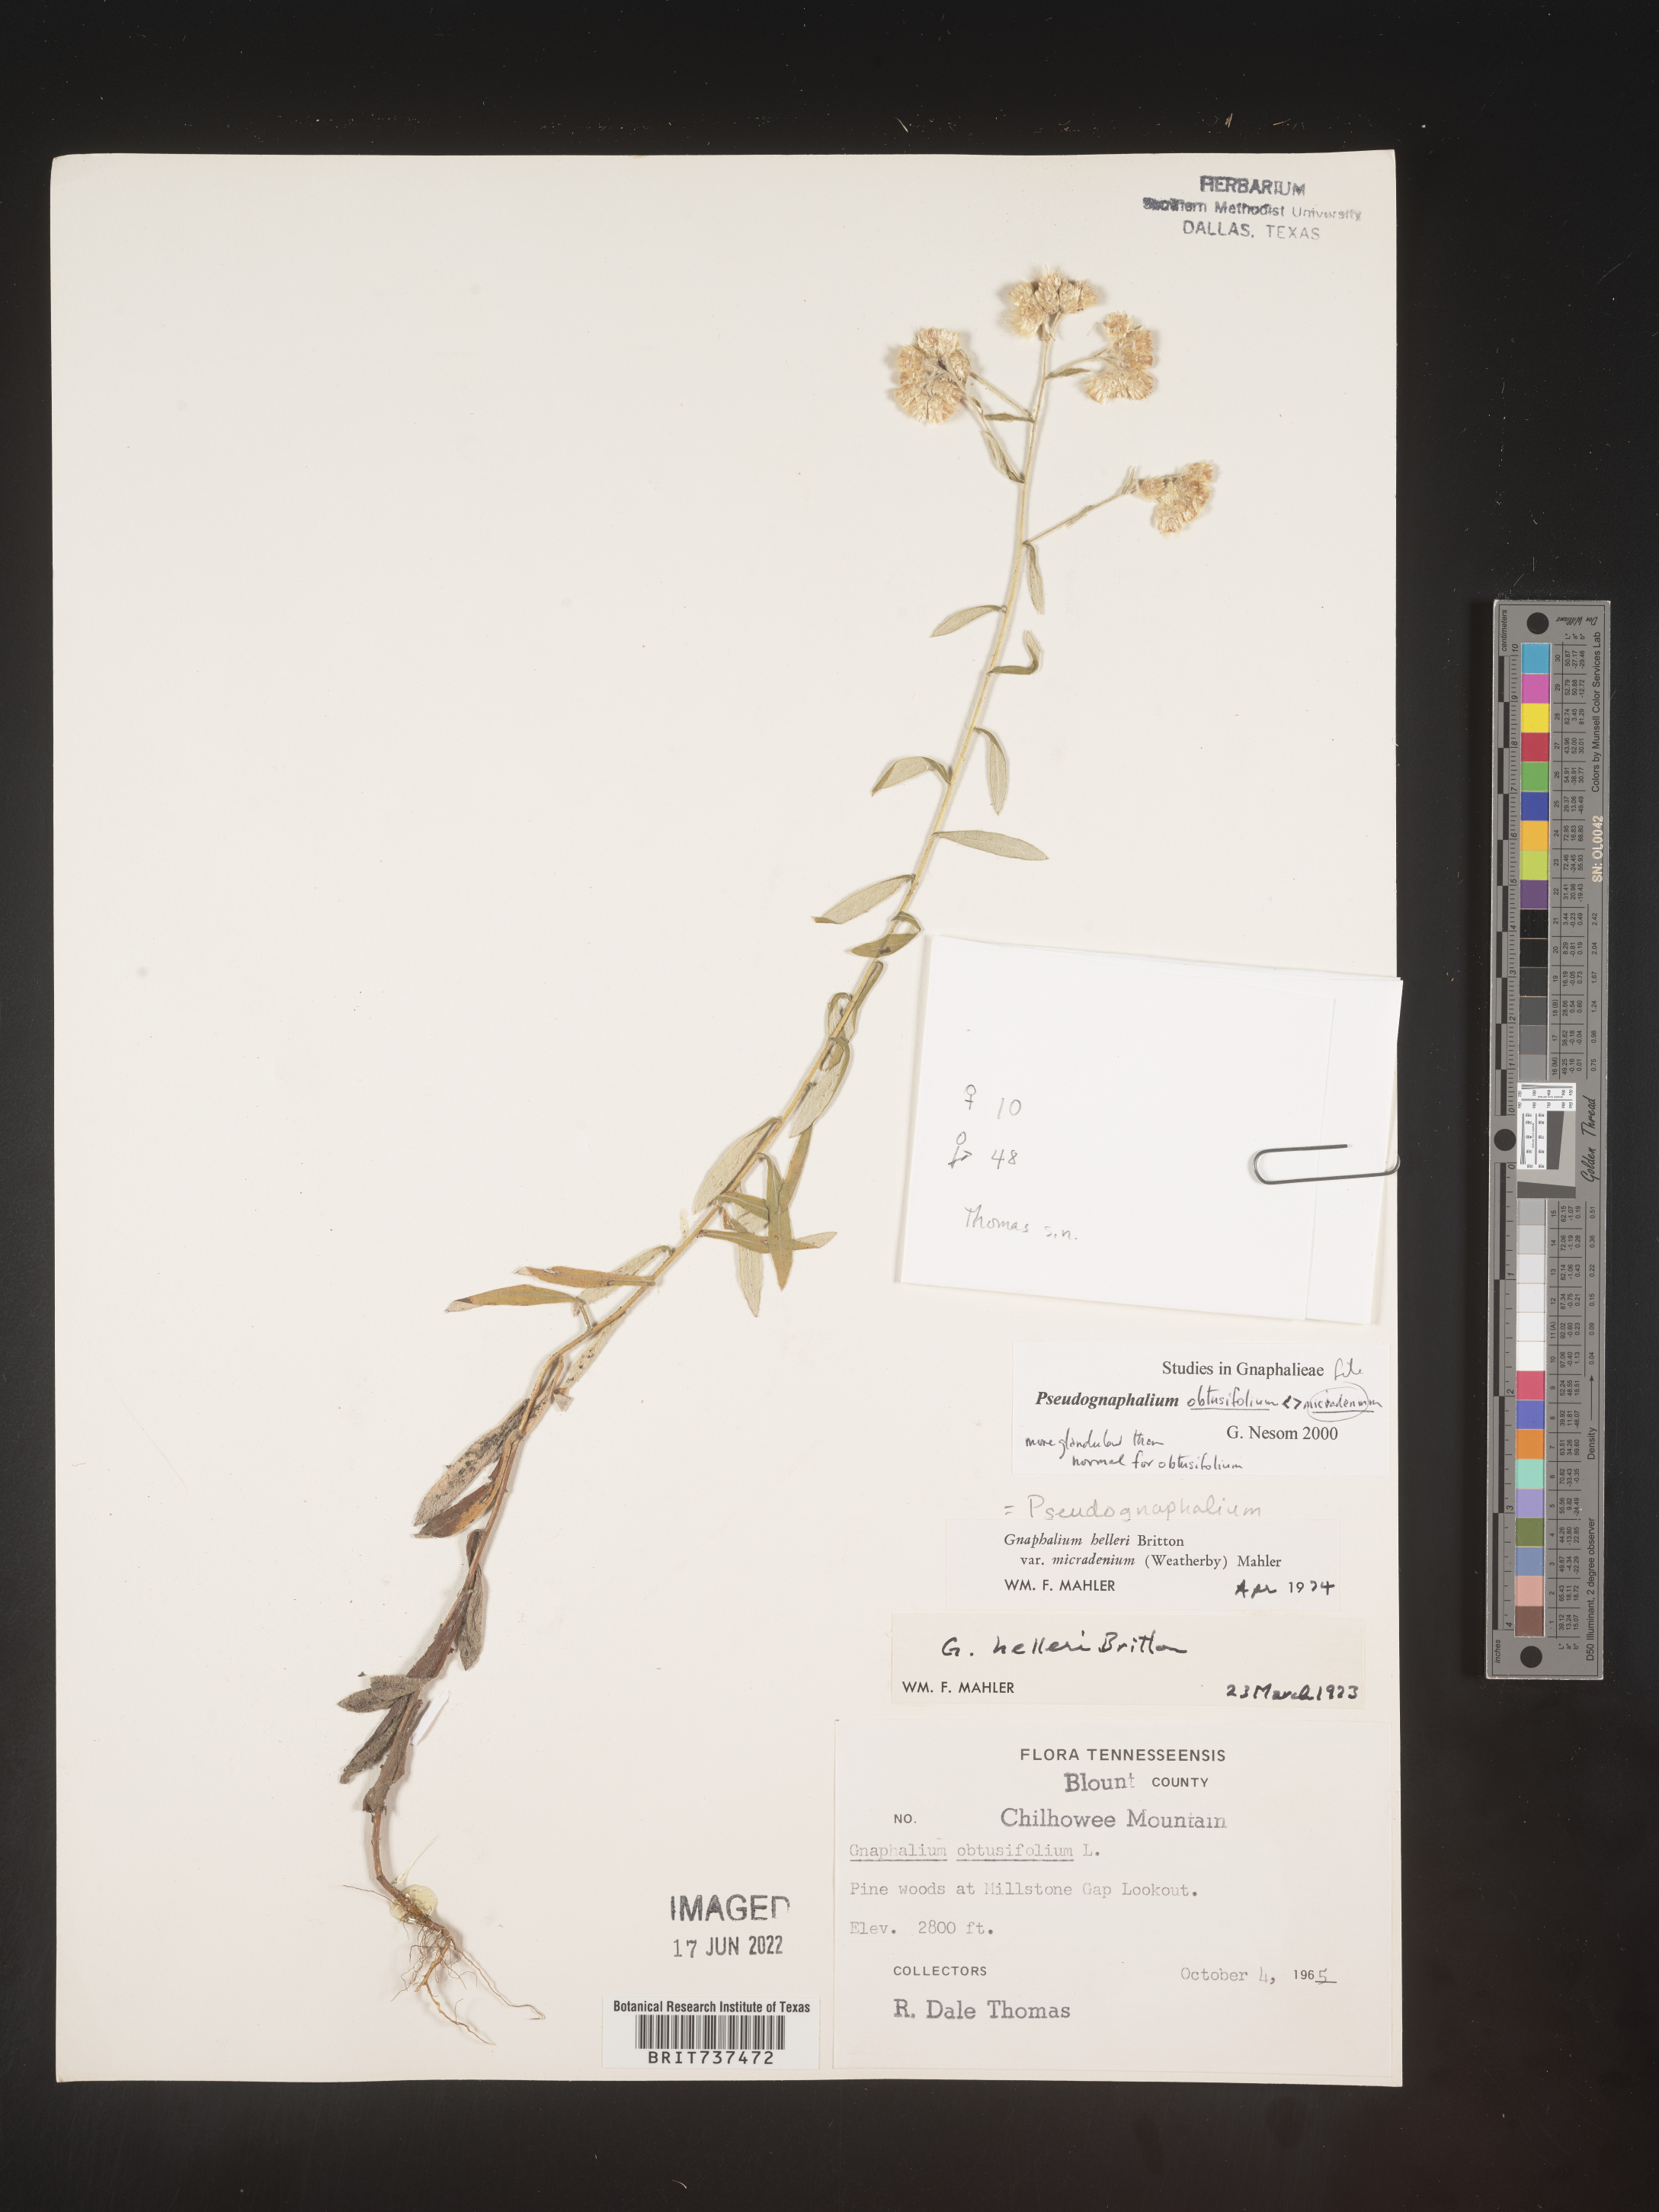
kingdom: Plantae
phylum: Tracheophyta
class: Magnoliopsida
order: Asterales
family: Asteraceae
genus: Pseudognaphalium
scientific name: Pseudognaphalium micradenium
